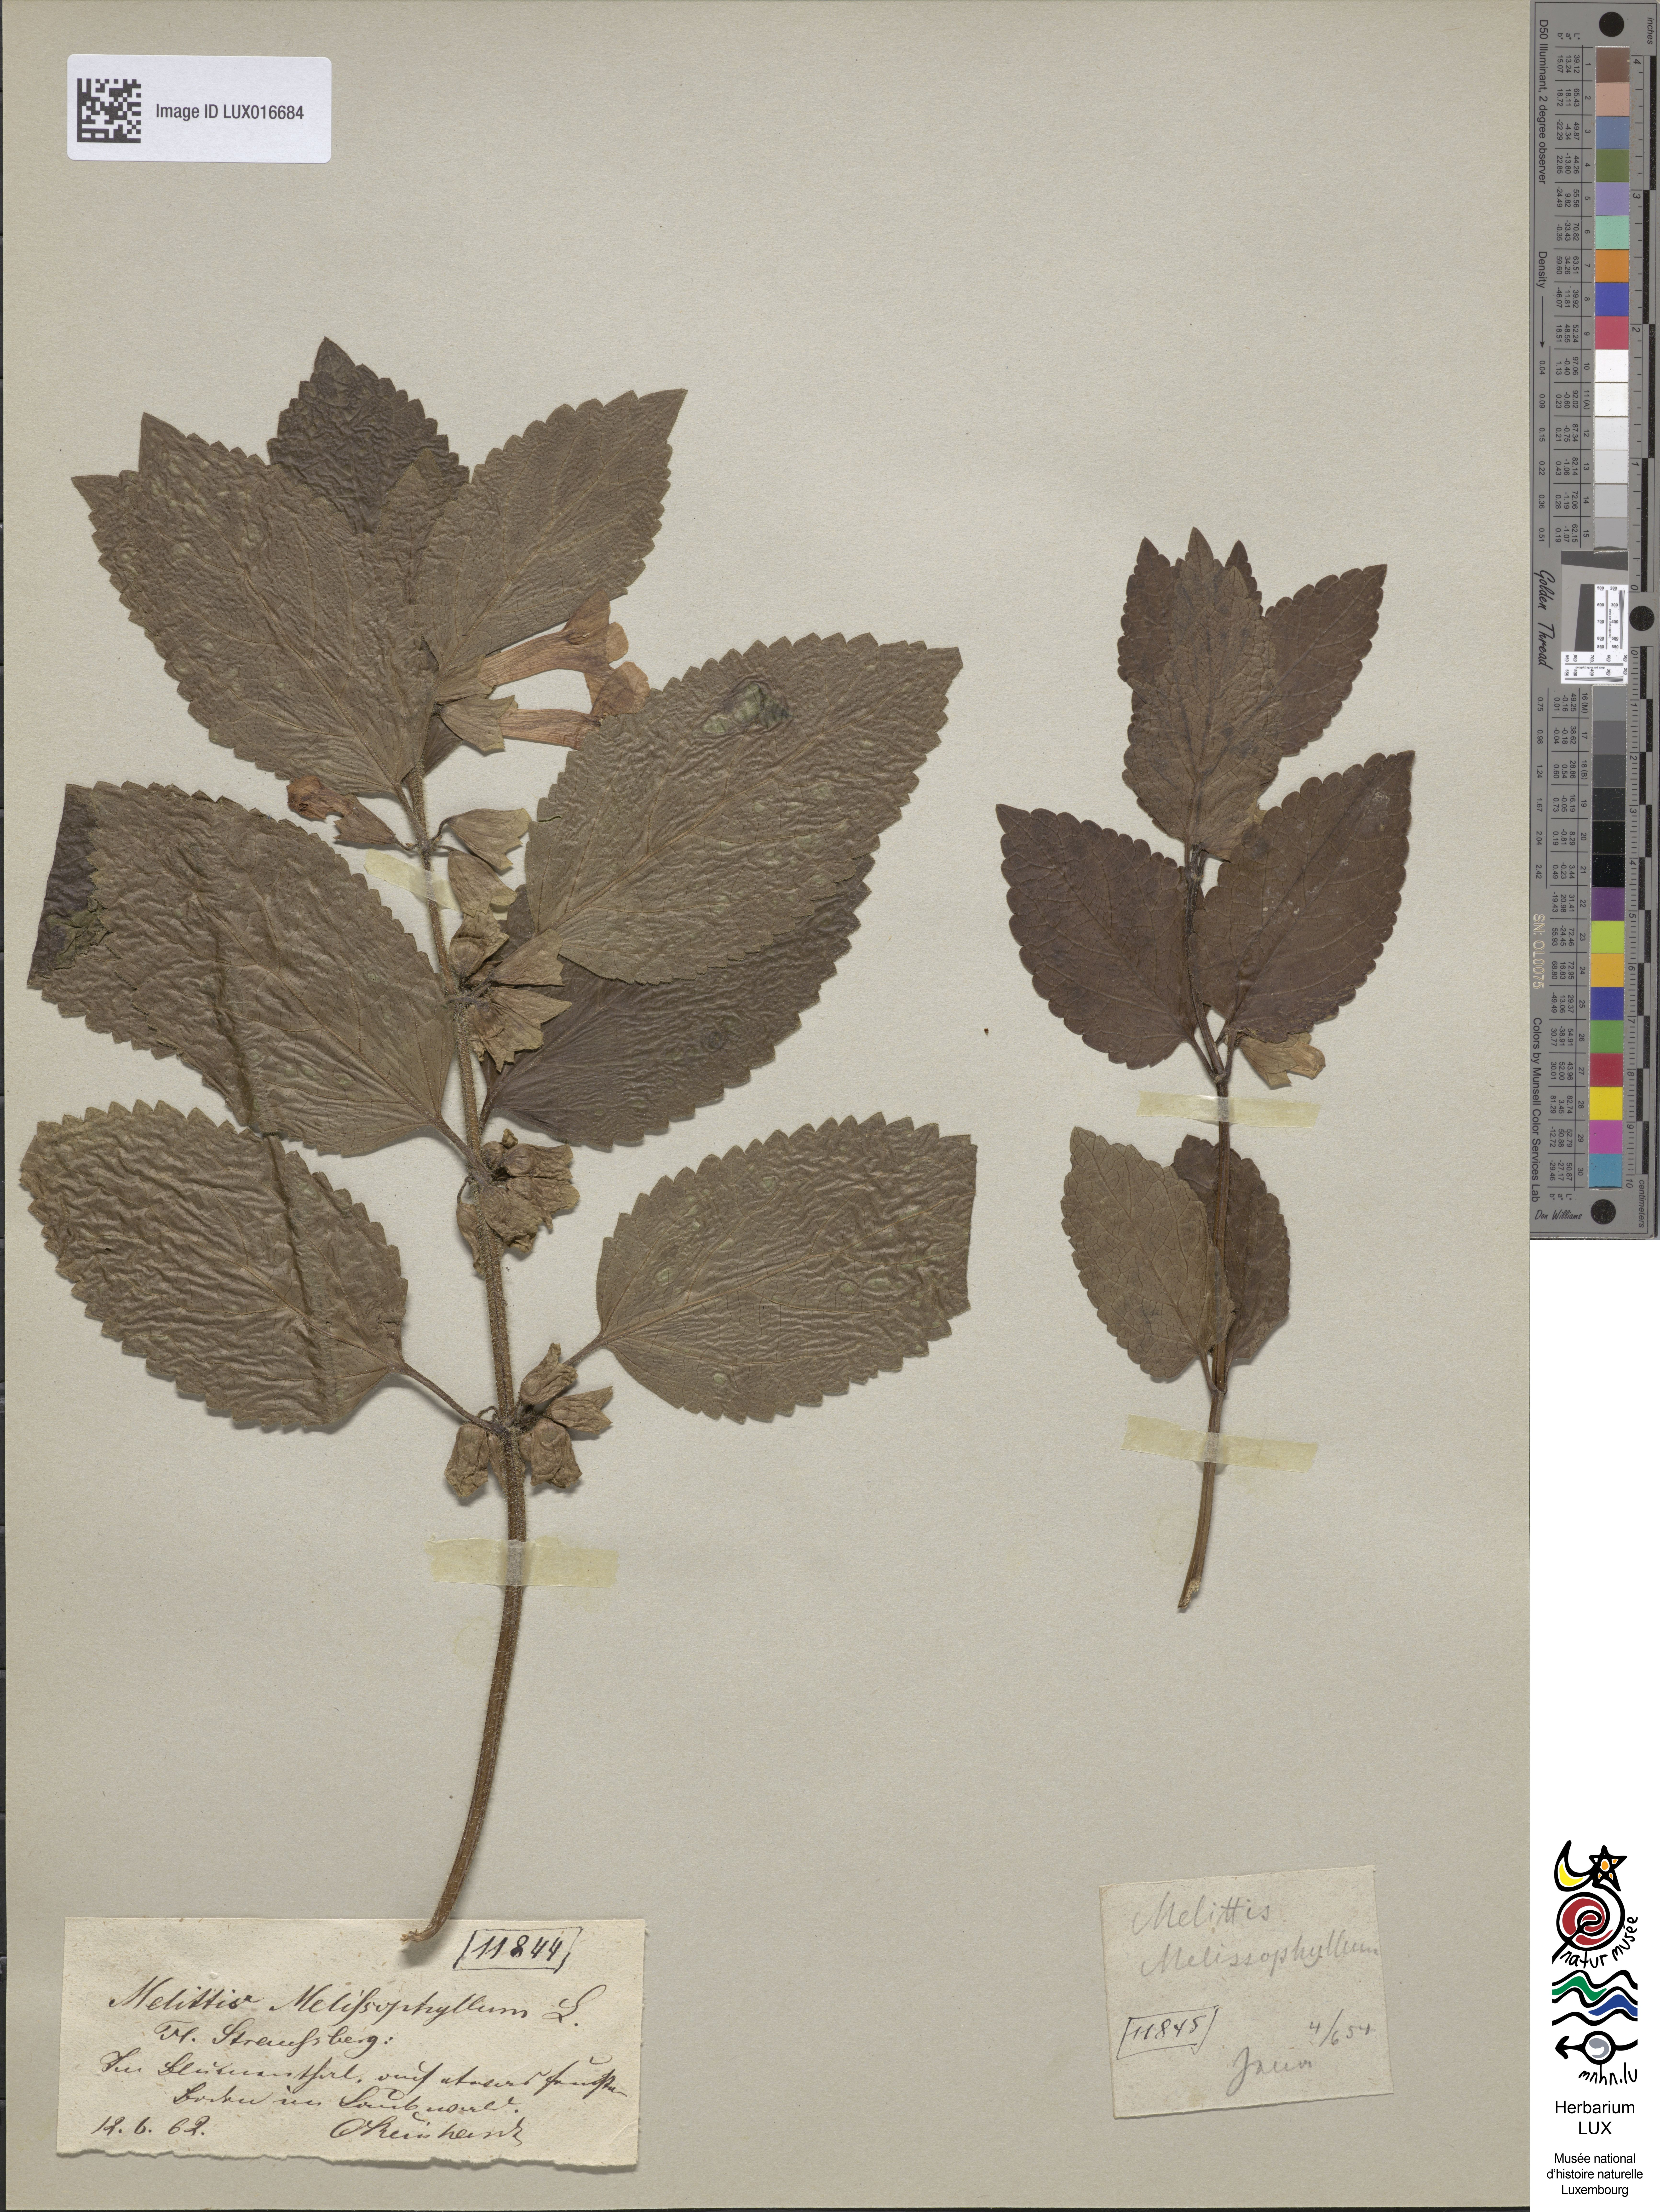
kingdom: Plantae
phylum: Tracheophyta
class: Magnoliopsida
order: Lamiales
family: Lamiaceae
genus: Melittis
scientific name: Melittis melissophyllum
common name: Bastard balm
